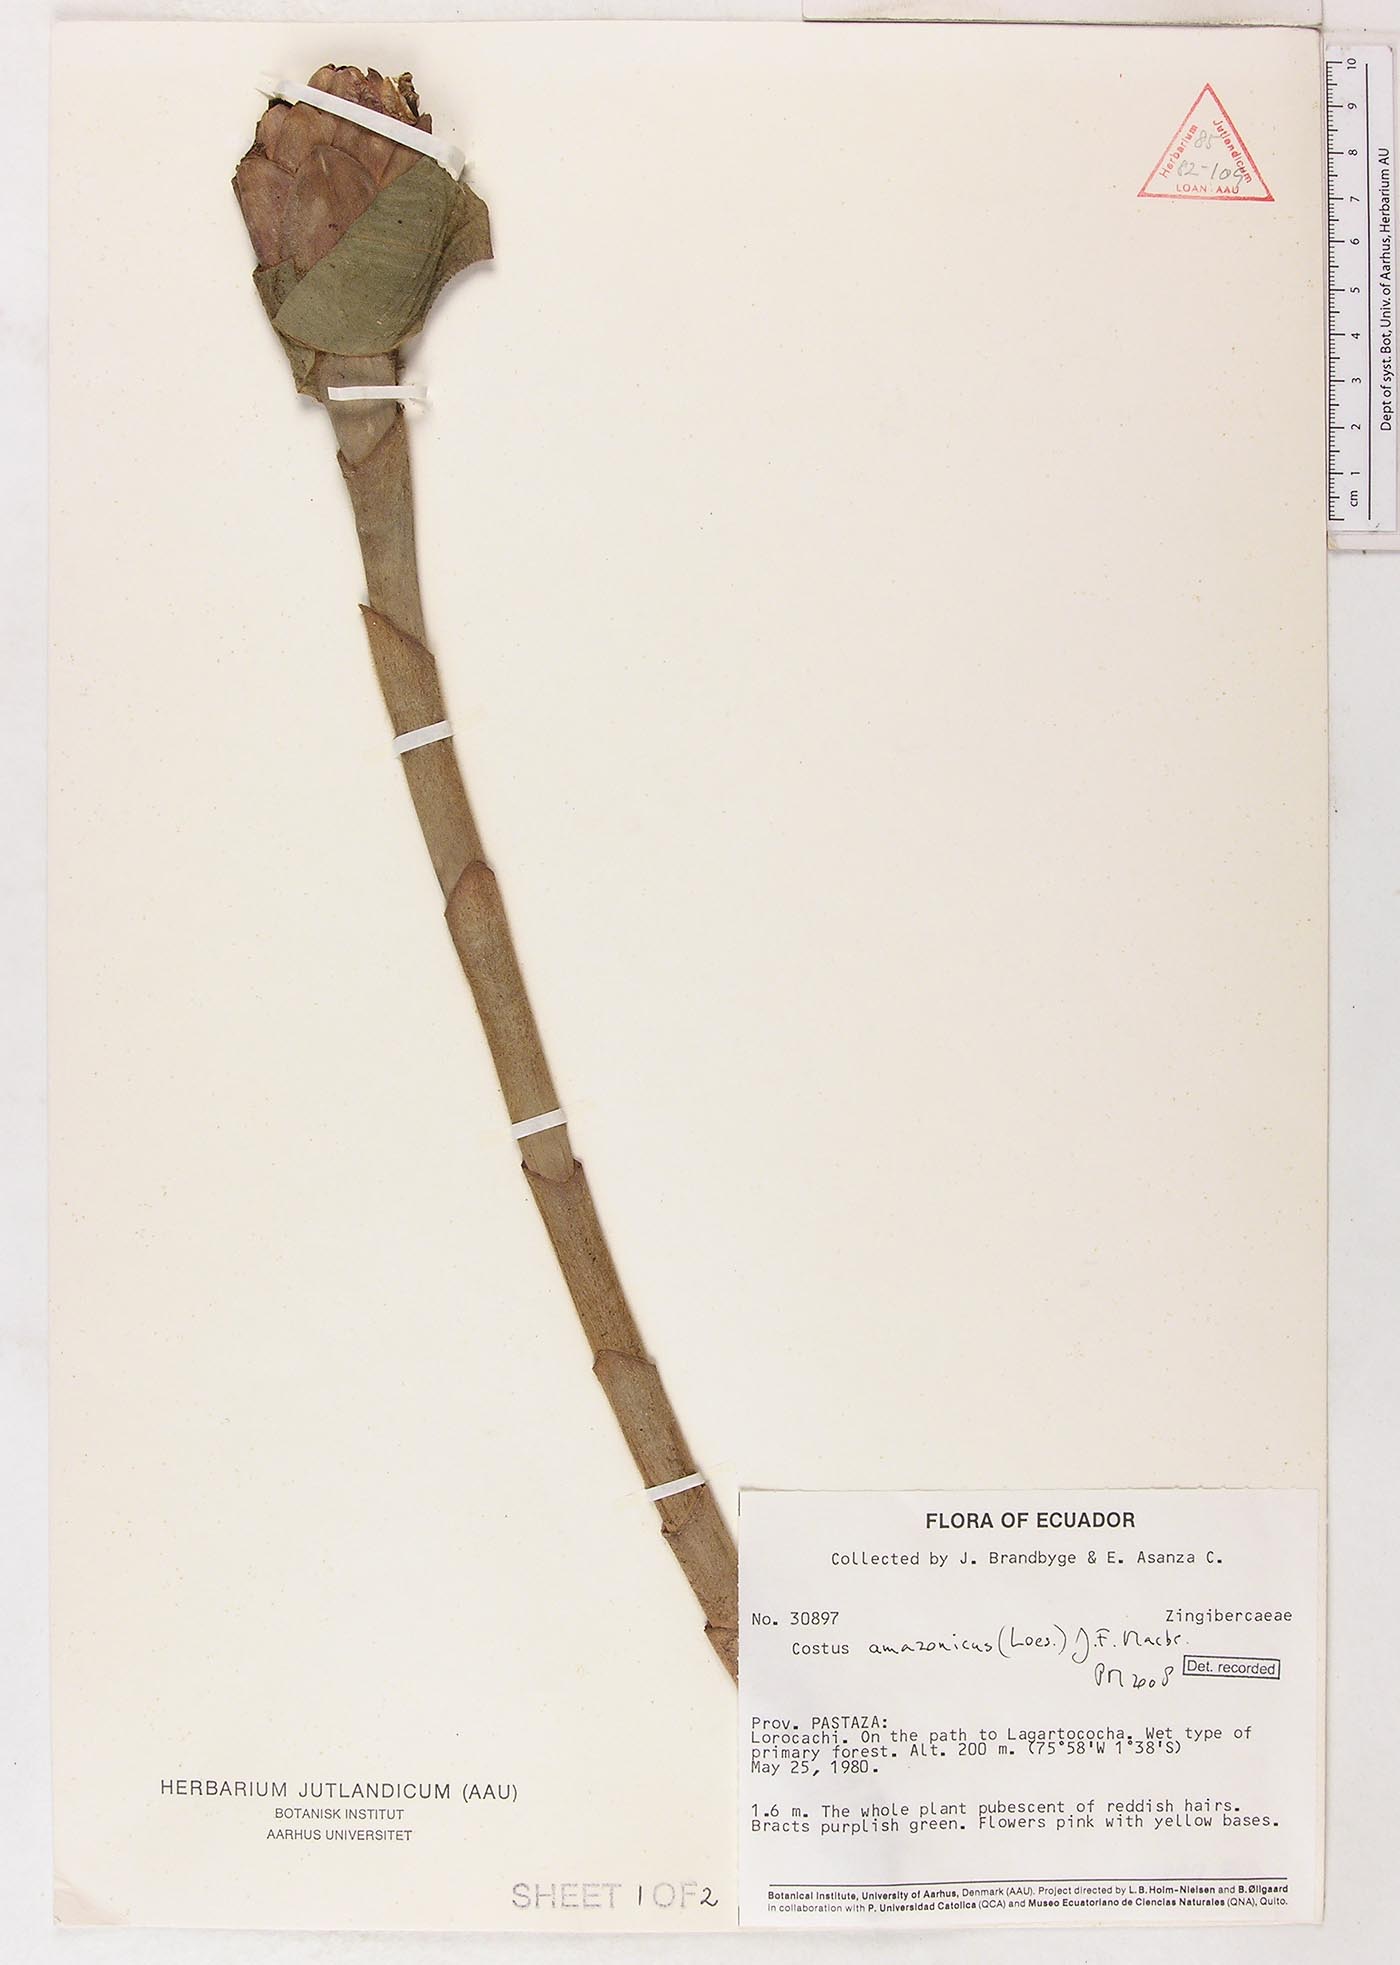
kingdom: Plantae
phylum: Tracheophyta
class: Liliopsida
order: Zingiberales
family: Costaceae
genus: Costus
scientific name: Costus amazonicus
